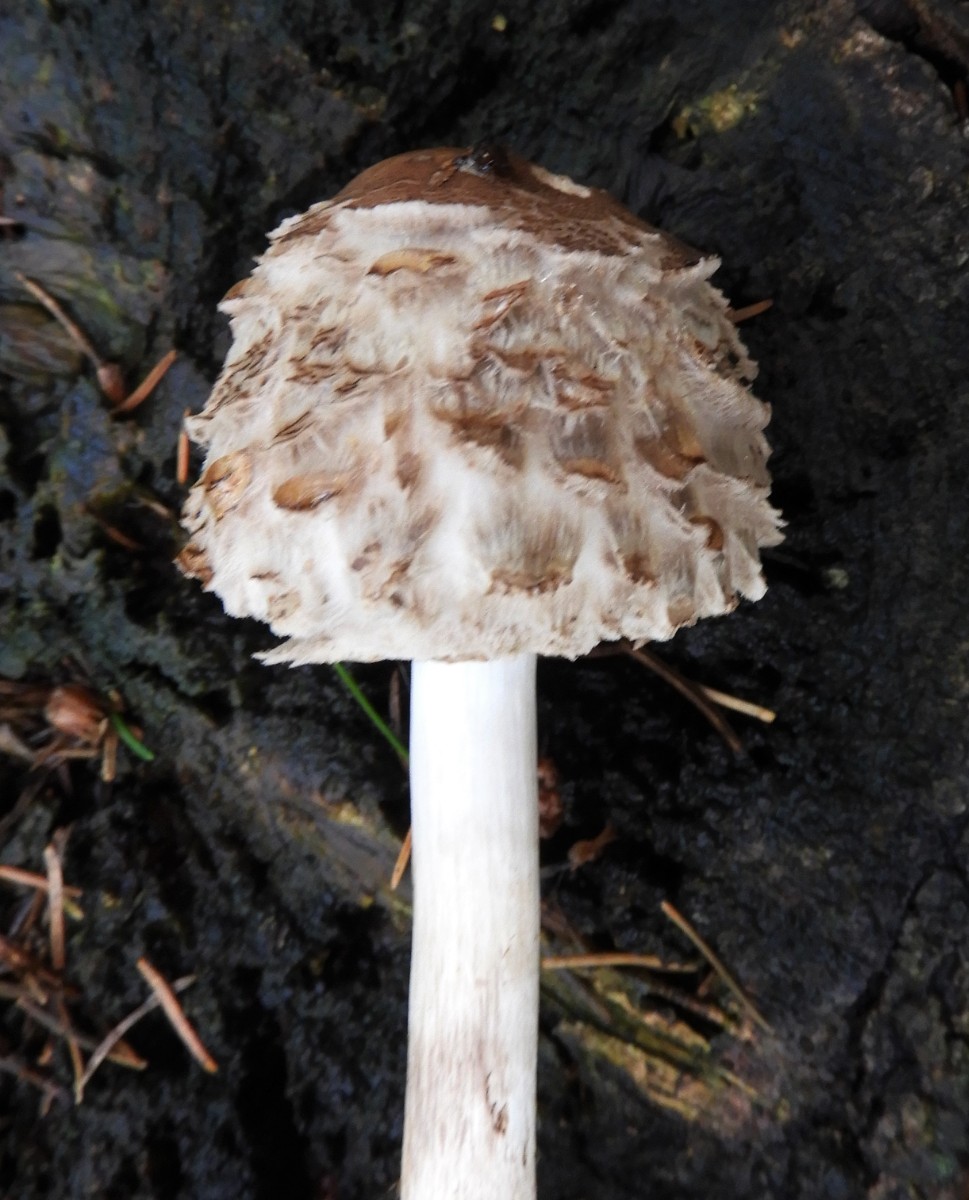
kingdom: Fungi
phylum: Basidiomycota
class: Agaricomycetes
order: Agaricales
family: Agaricaceae
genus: Chlorophyllum
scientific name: Chlorophyllum olivieri
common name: almindelig rabarberhat
